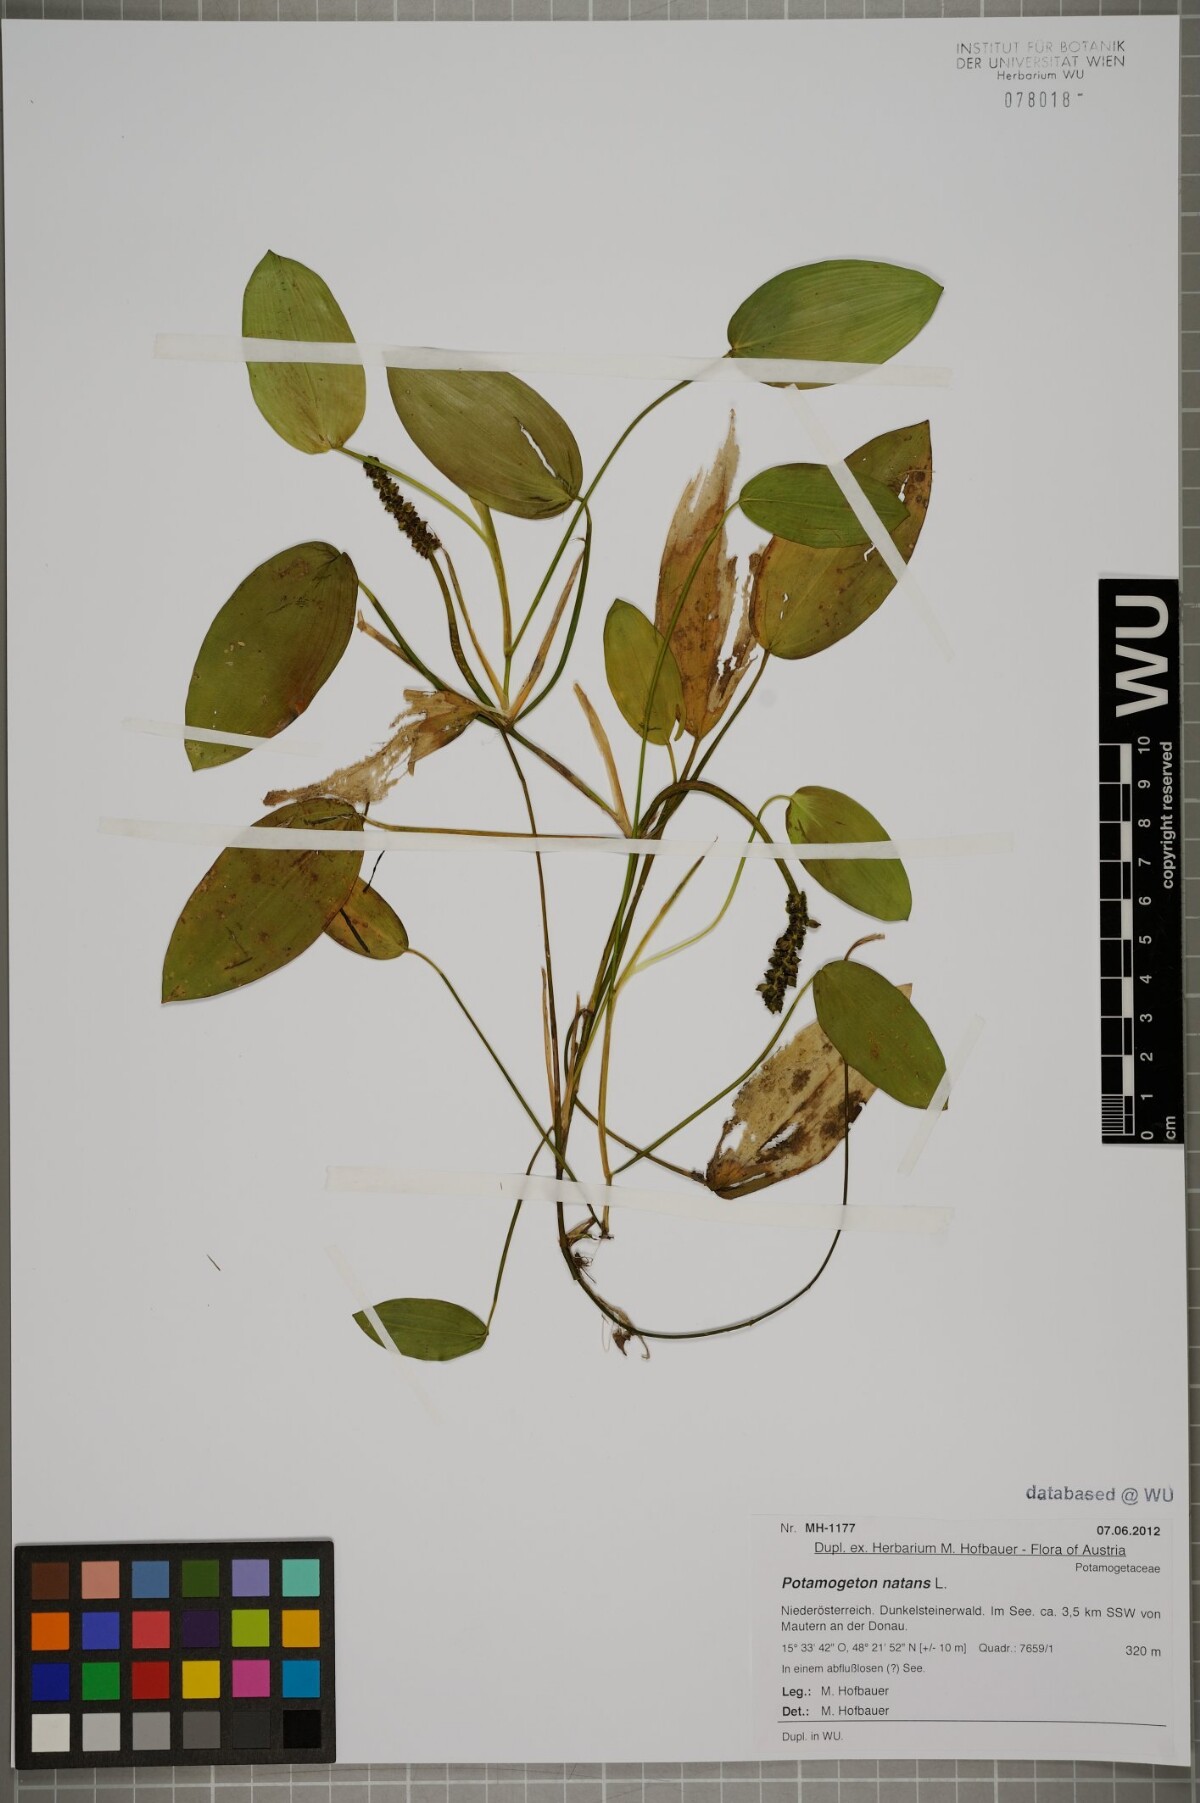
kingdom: Plantae
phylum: Tracheophyta
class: Liliopsida
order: Alismatales
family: Potamogetonaceae
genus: Potamogeton
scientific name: Potamogeton natans
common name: Broad-leaved pondweed
